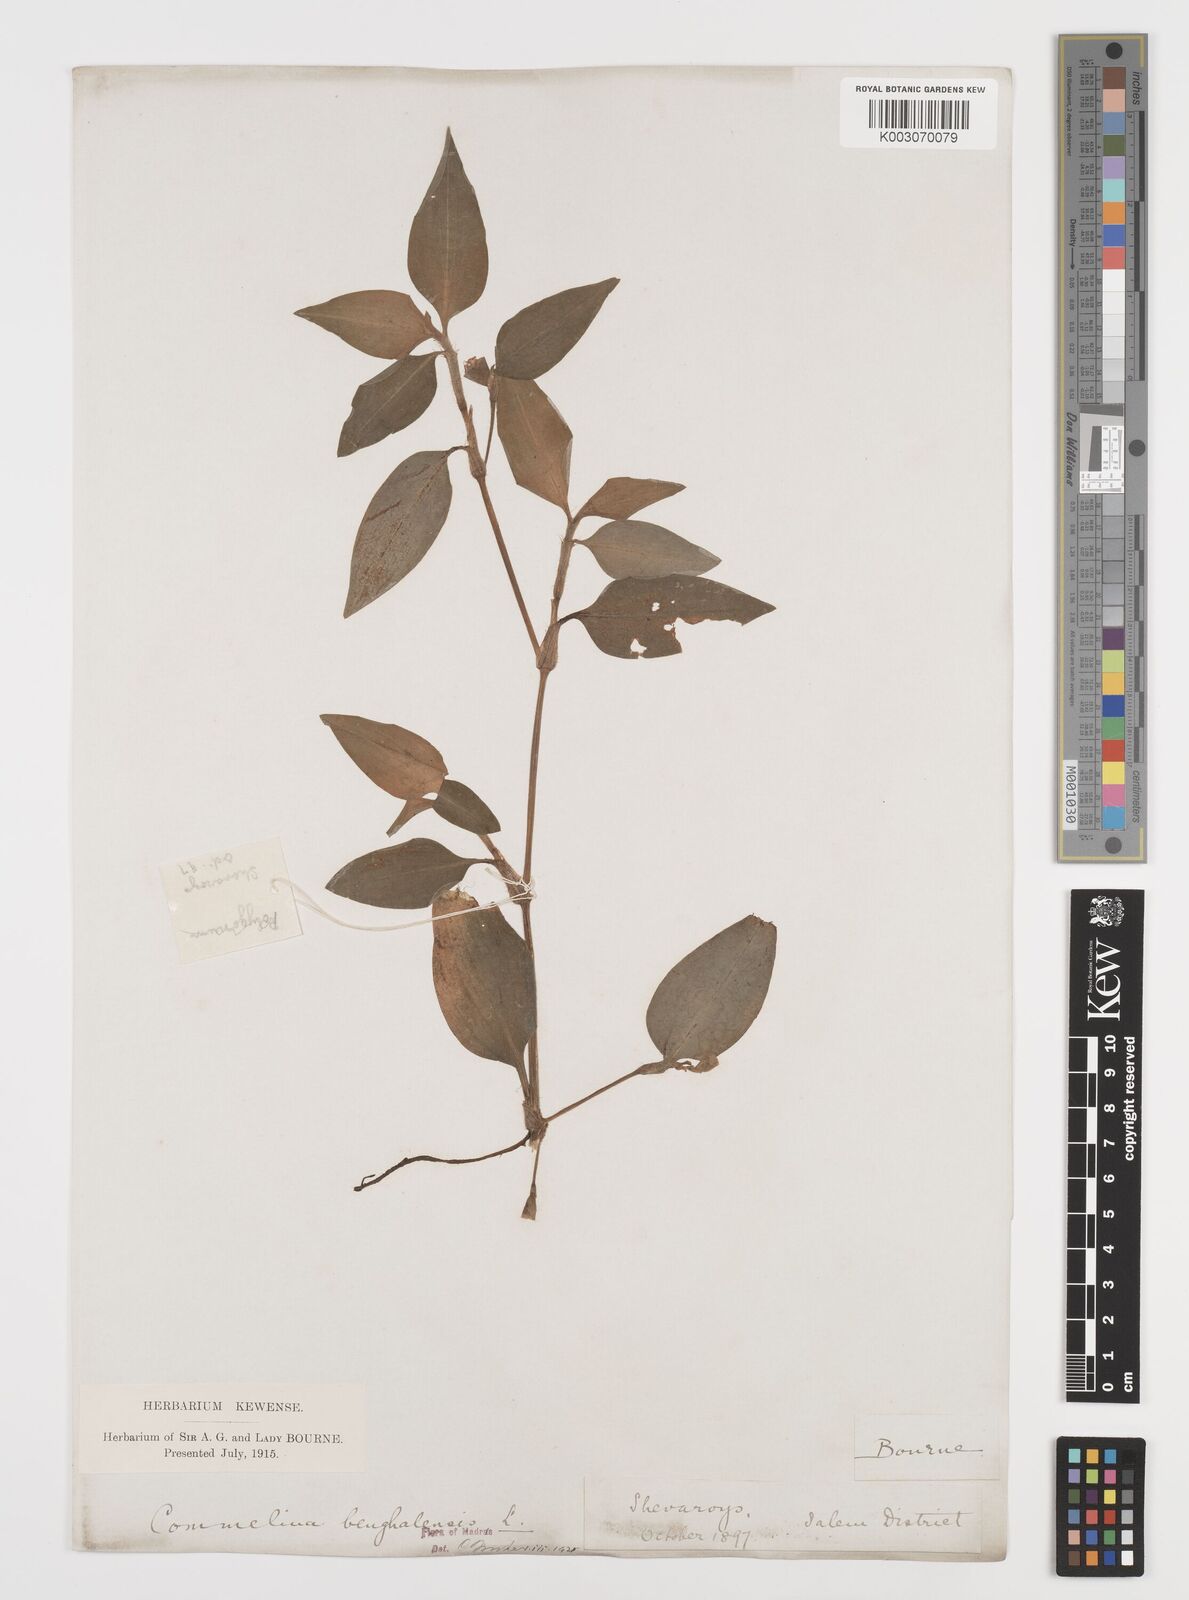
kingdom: Plantae
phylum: Tracheophyta
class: Liliopsida
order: Commelinales
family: Commelinaceae
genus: Commelina
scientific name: Commelina benghalensis
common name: Jio
